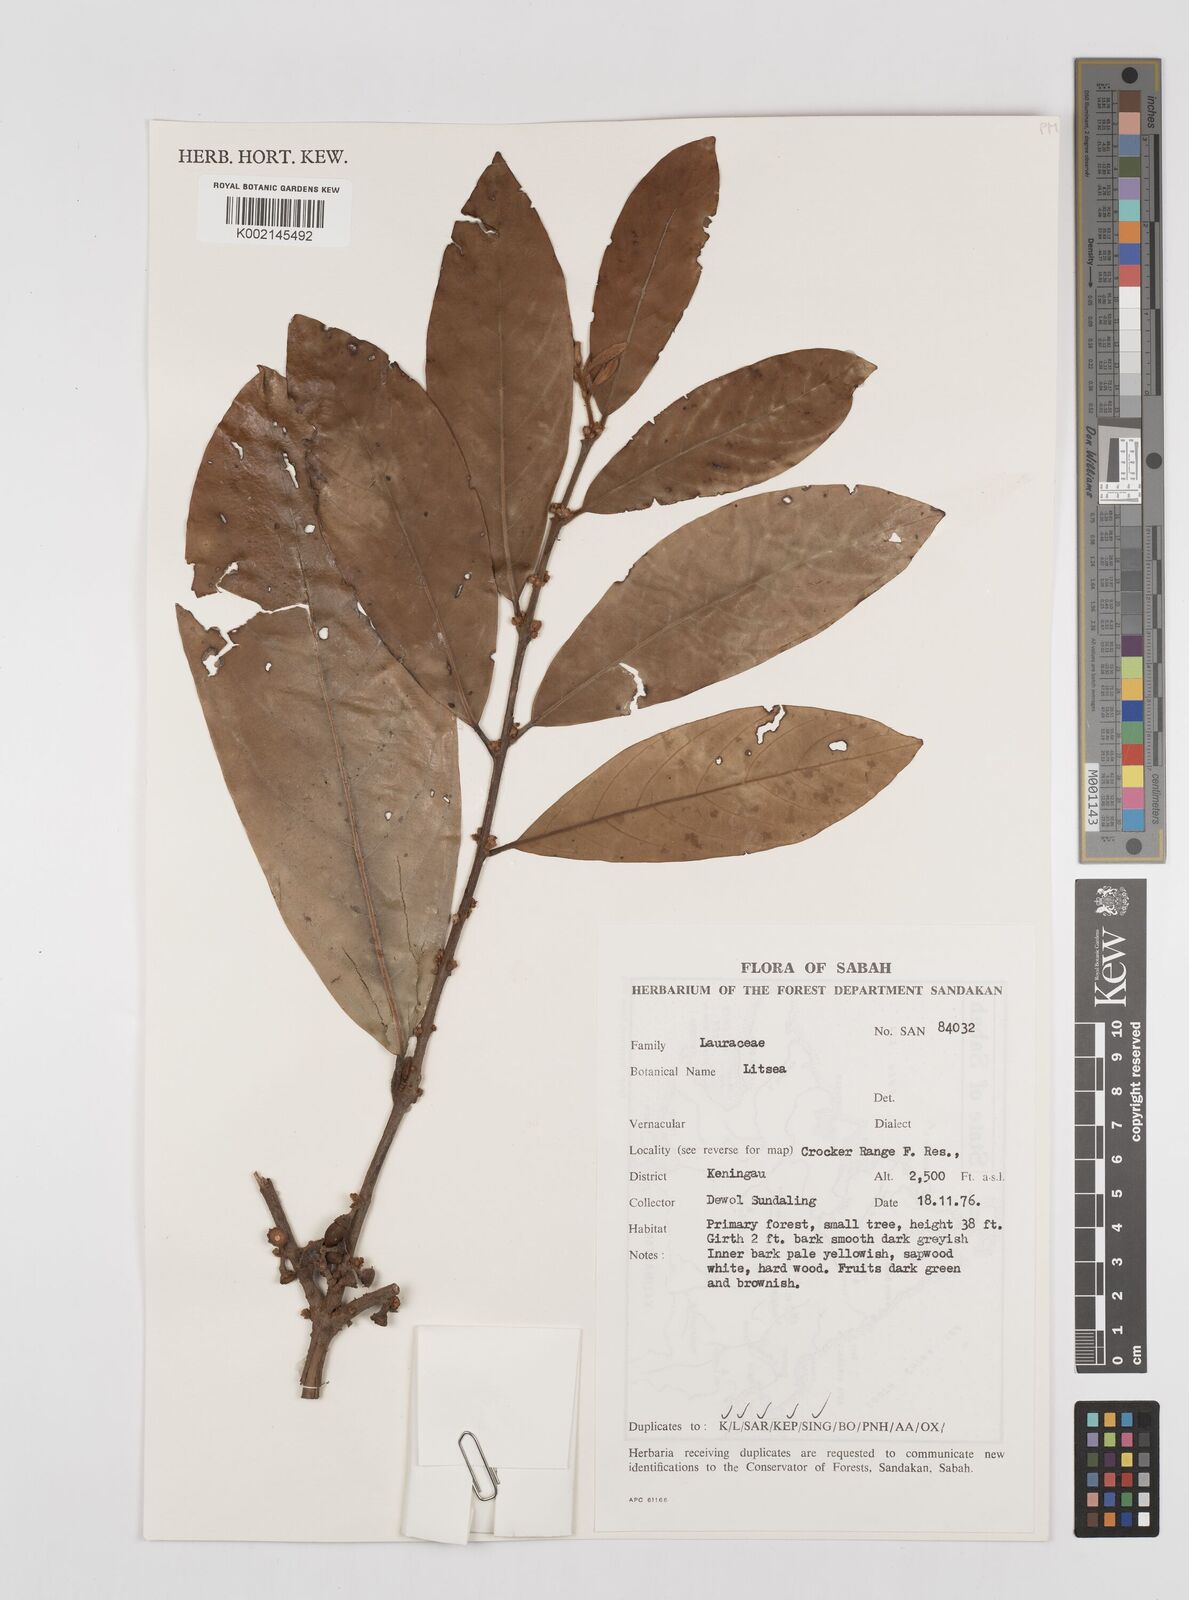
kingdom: Plantae
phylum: Tracheophyta
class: Magnoliopsida
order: Laurales
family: Lauraceae
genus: Litsea
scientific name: Litsea
